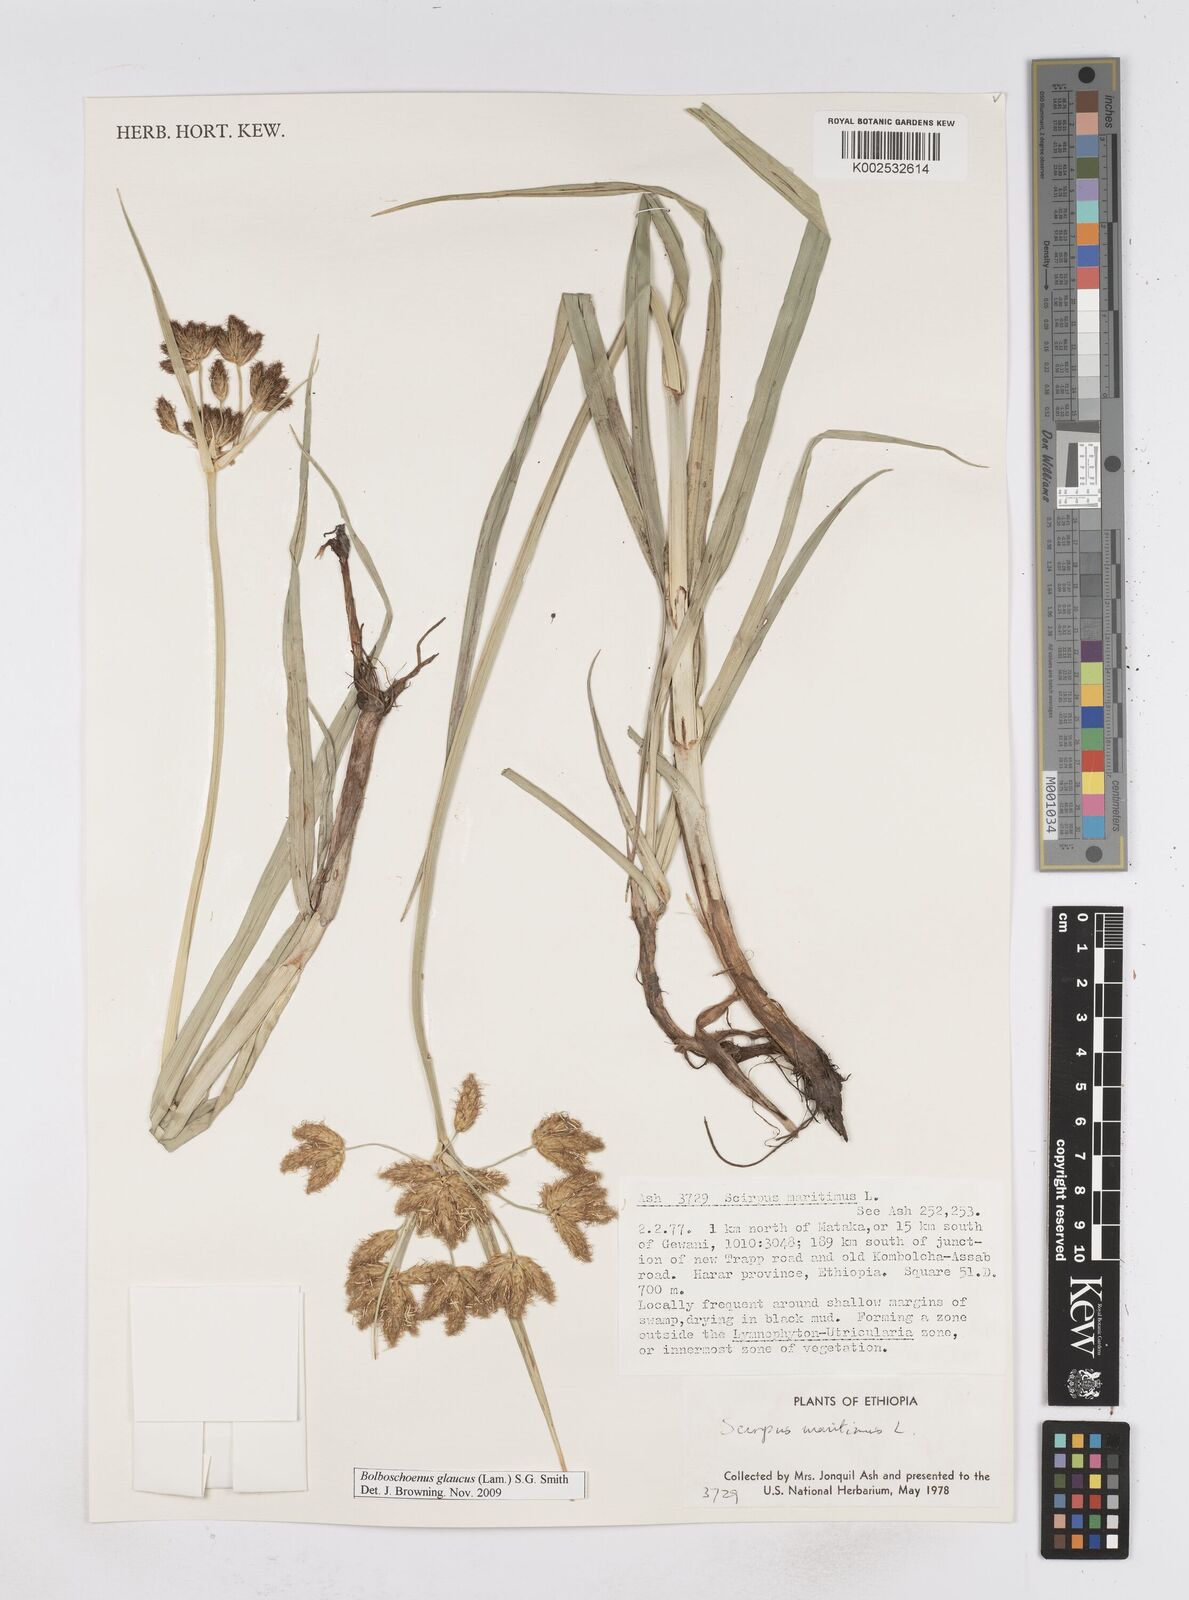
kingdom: Plantae
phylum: Tracheophyta
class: Liliopsida
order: Poales
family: Cyperaceae
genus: Bolboschoenus
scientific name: Bolboschoenus glaucus
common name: Tuberous bulrush
